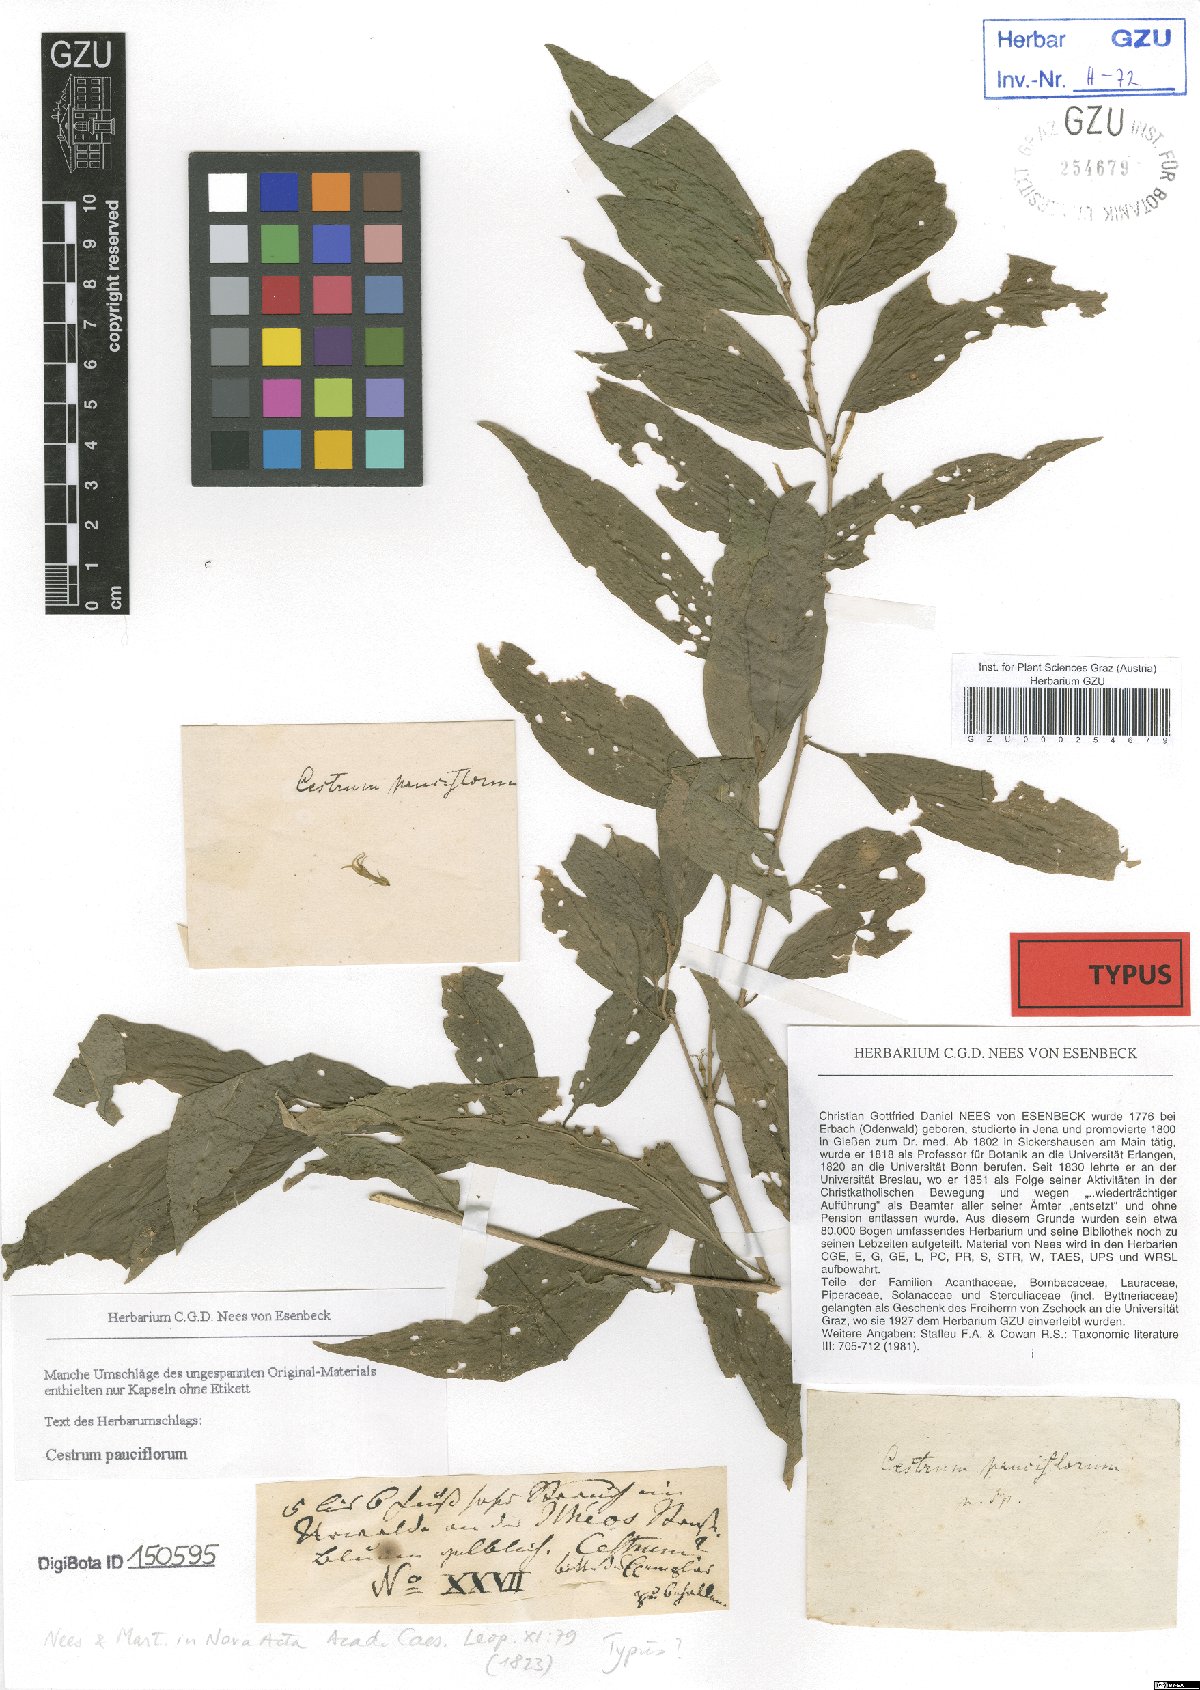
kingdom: Plantae
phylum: Tracheophyta
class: Magnoliopsida
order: Solanales
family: Solanaceae
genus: Cestrum
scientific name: Cestrum tenuifolium
